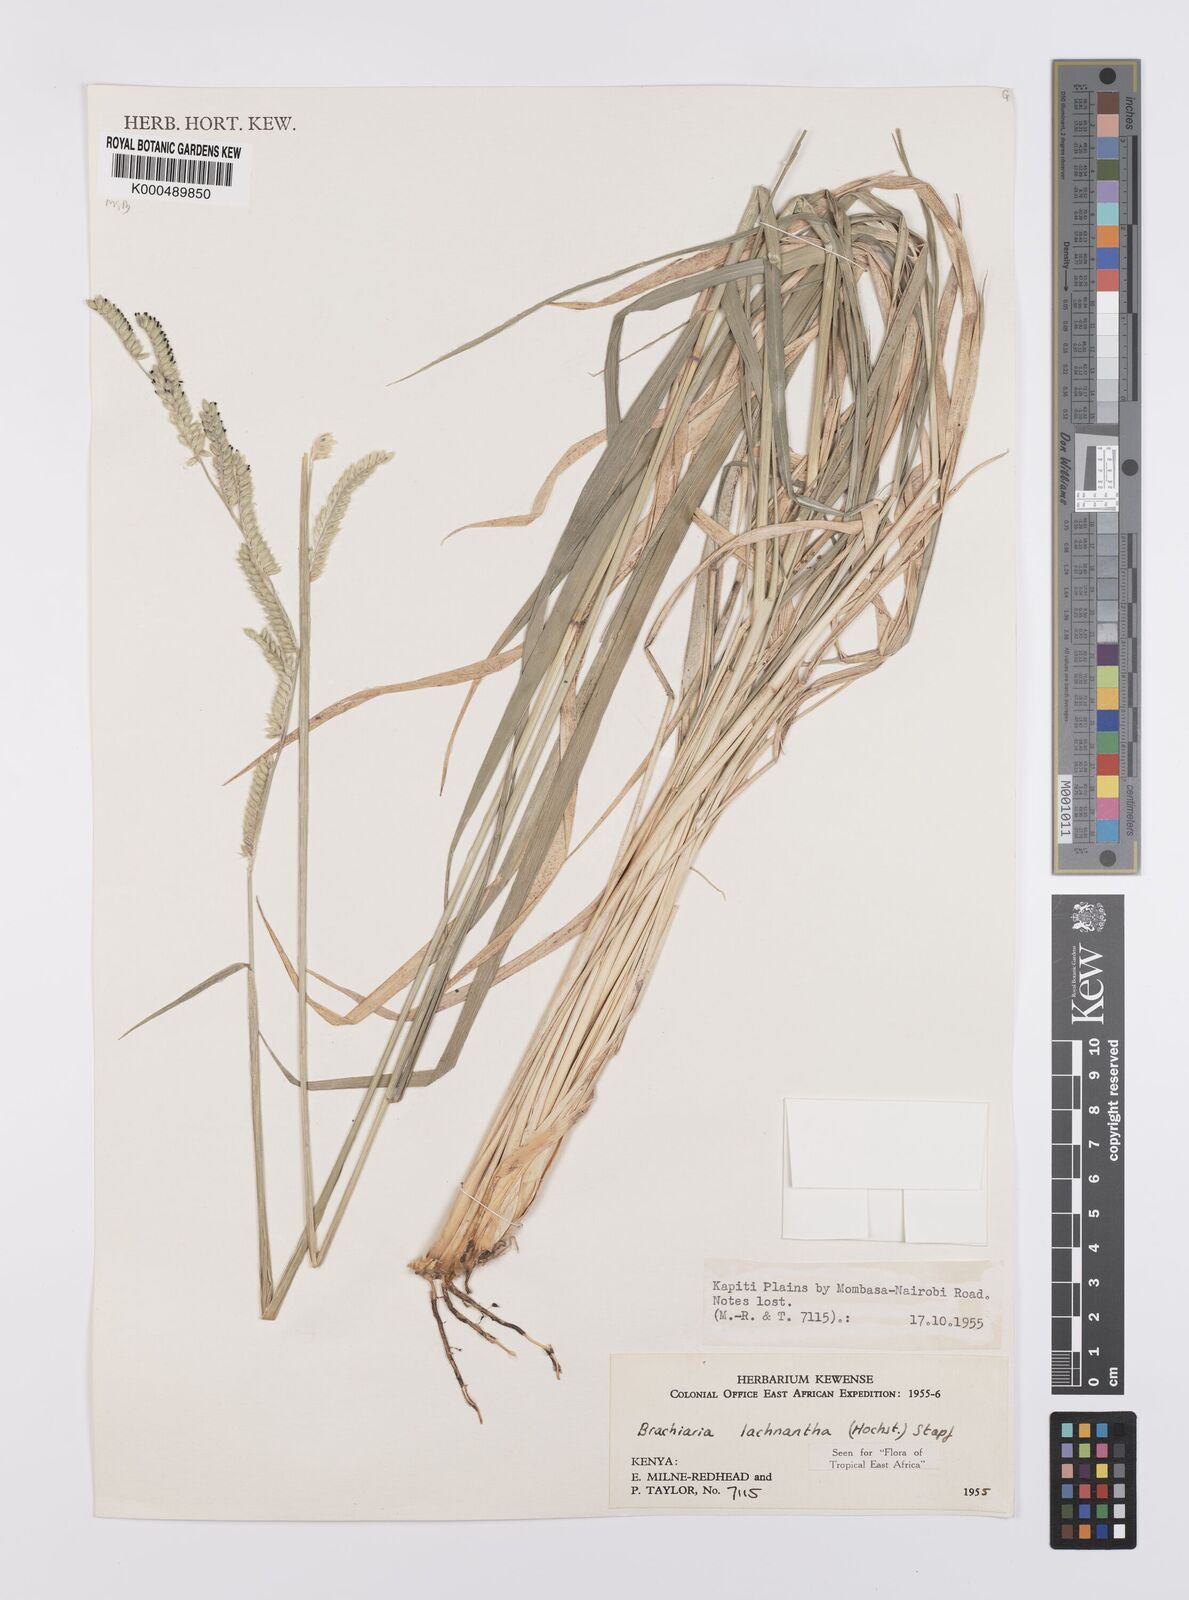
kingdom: Plantae
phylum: Tracheophyta
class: Liliopsida
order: Poales
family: Poaceae
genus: Urochloa
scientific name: Urochloa lachnantha
